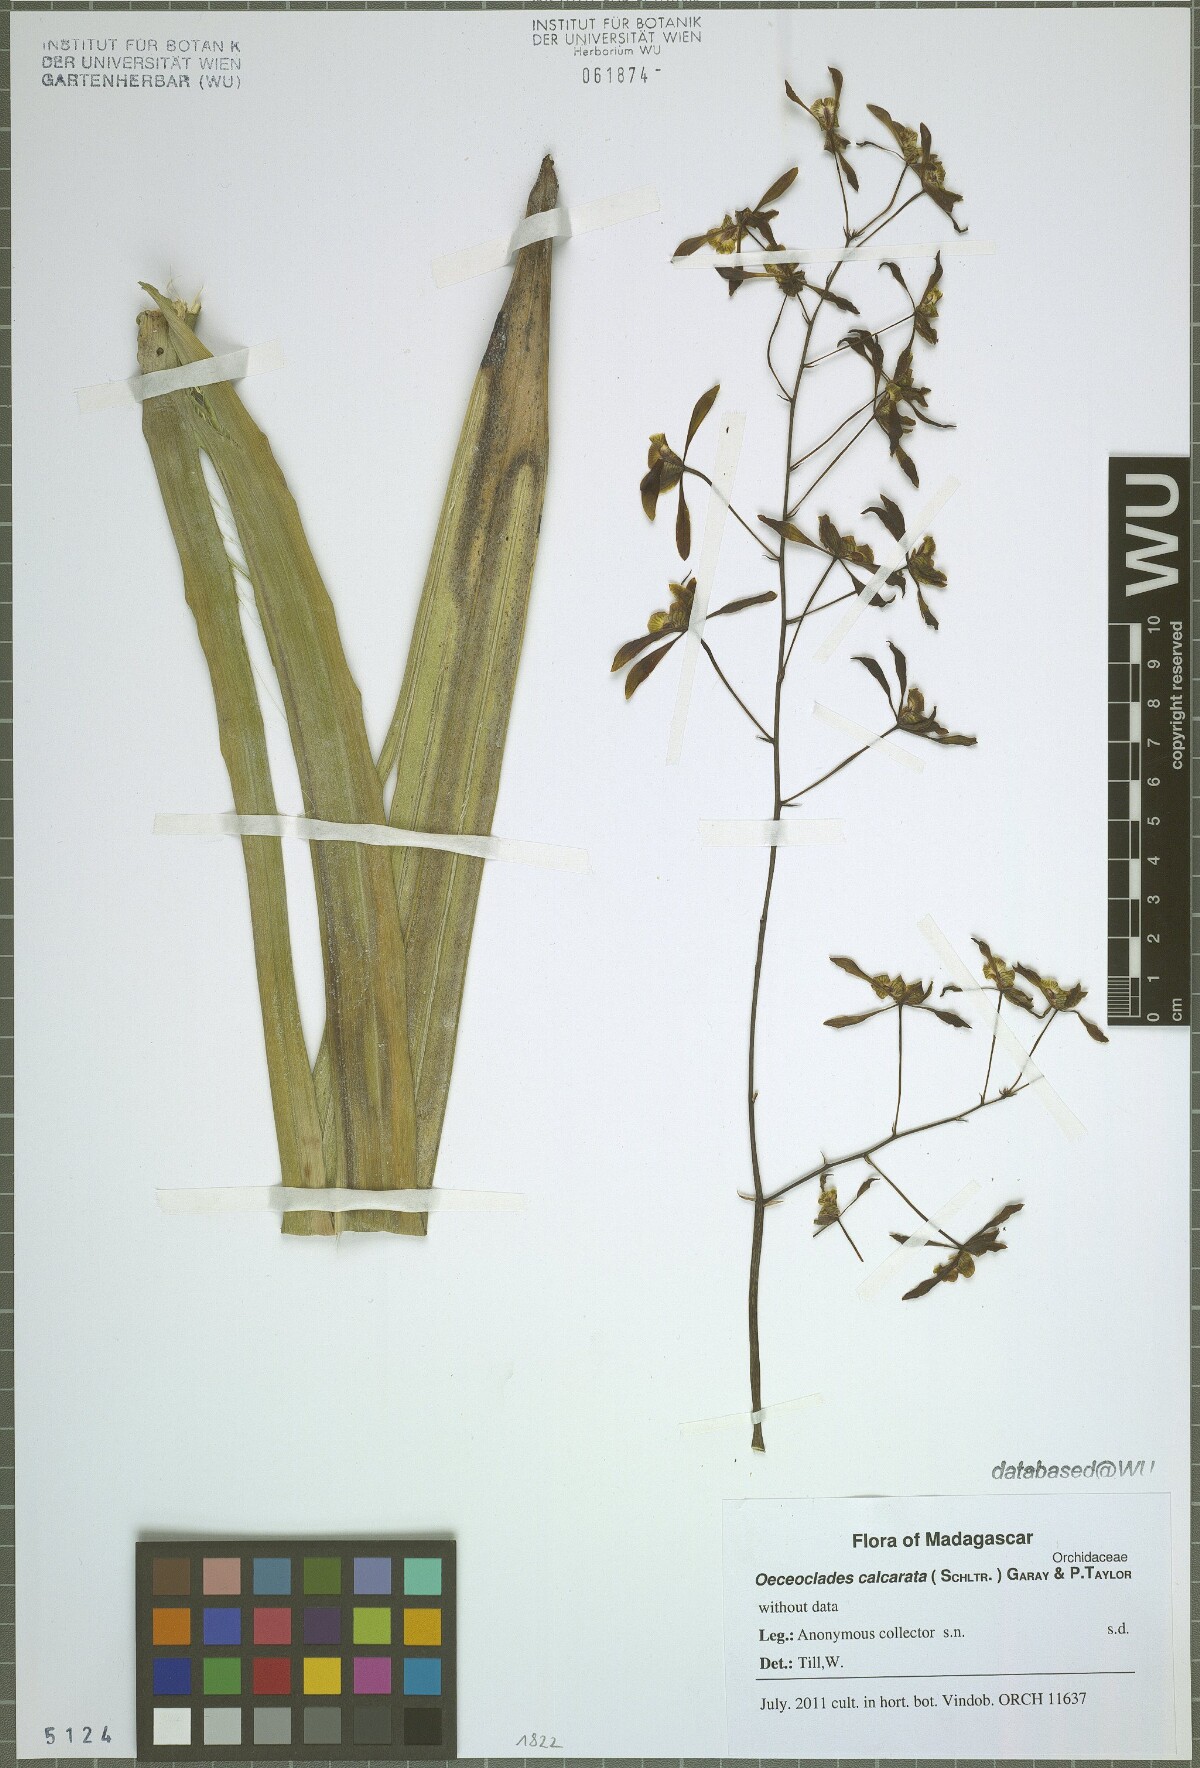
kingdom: Plantae
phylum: Tracheophyta
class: Liliopsida
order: Asparagales
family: Orchidaceae
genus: Eulophia
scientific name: Eulophia calcarata
